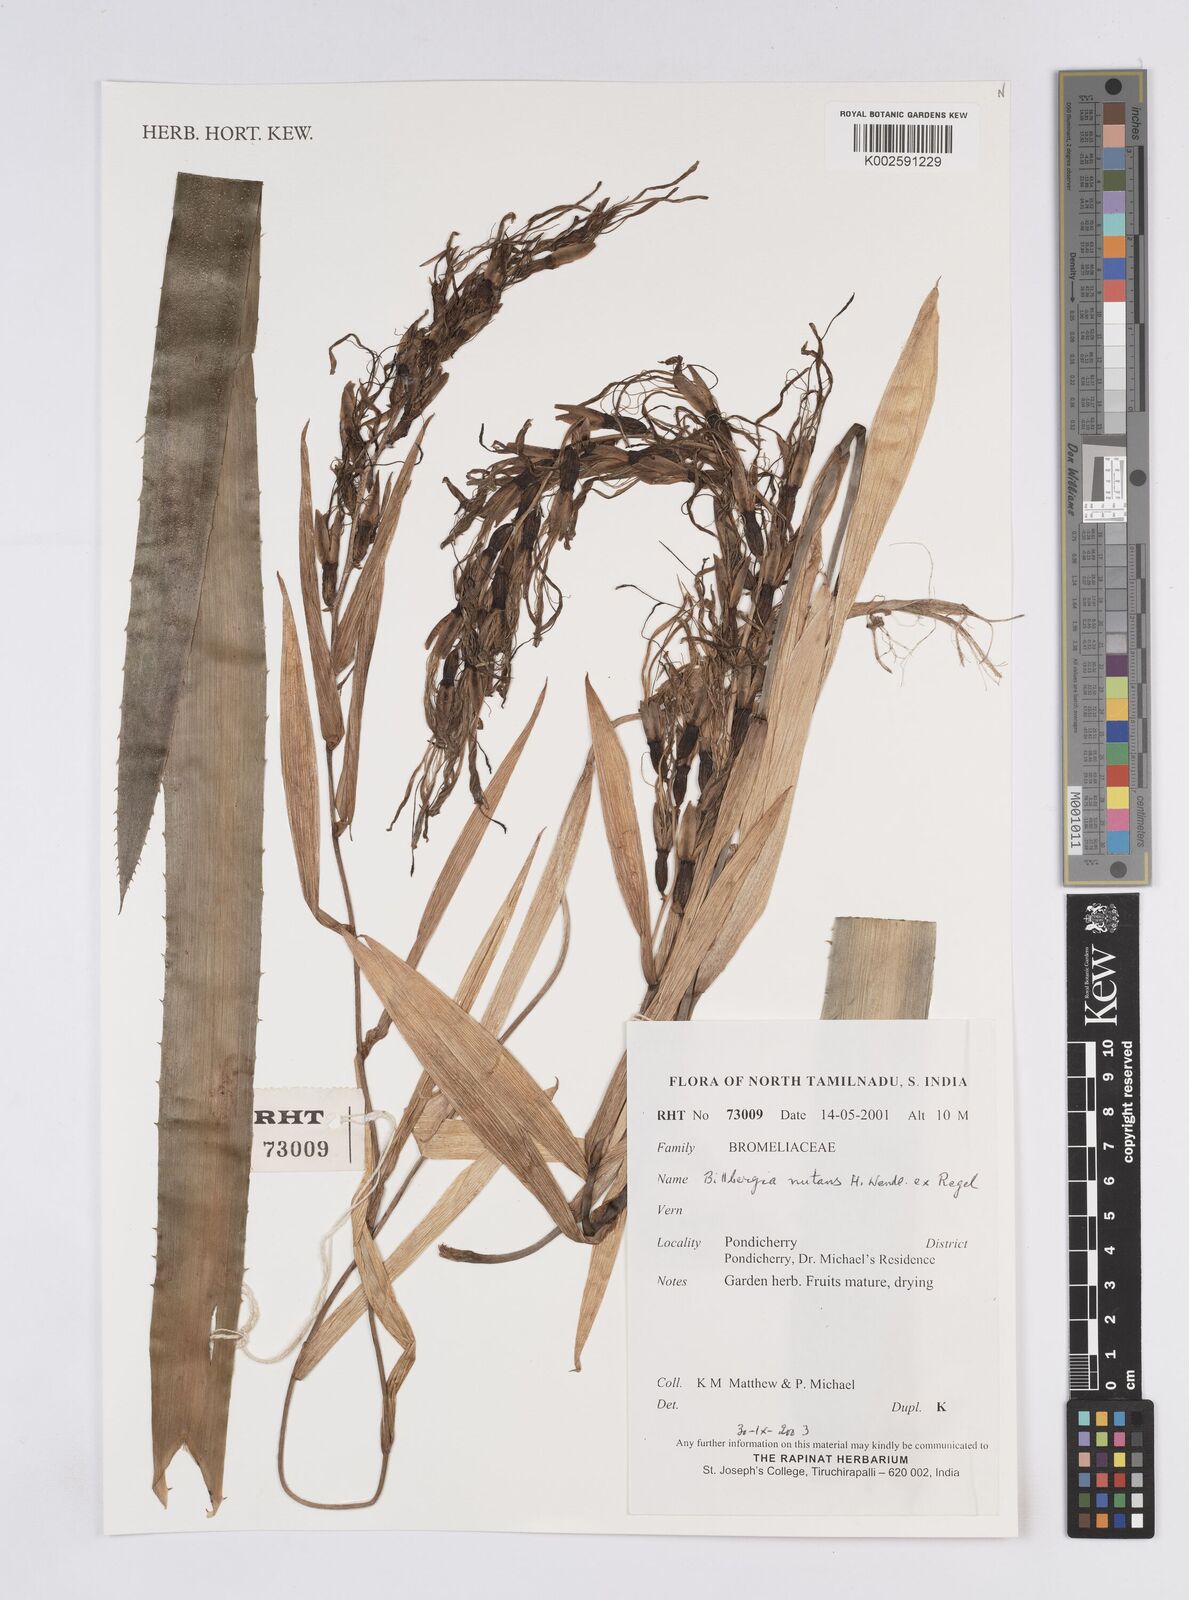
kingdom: Plantae
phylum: Tracheophyta
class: Liliopsida
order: Poales
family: Bromeliaceae
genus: Billbergia
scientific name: Billbergia nutans
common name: Friendship-plant
